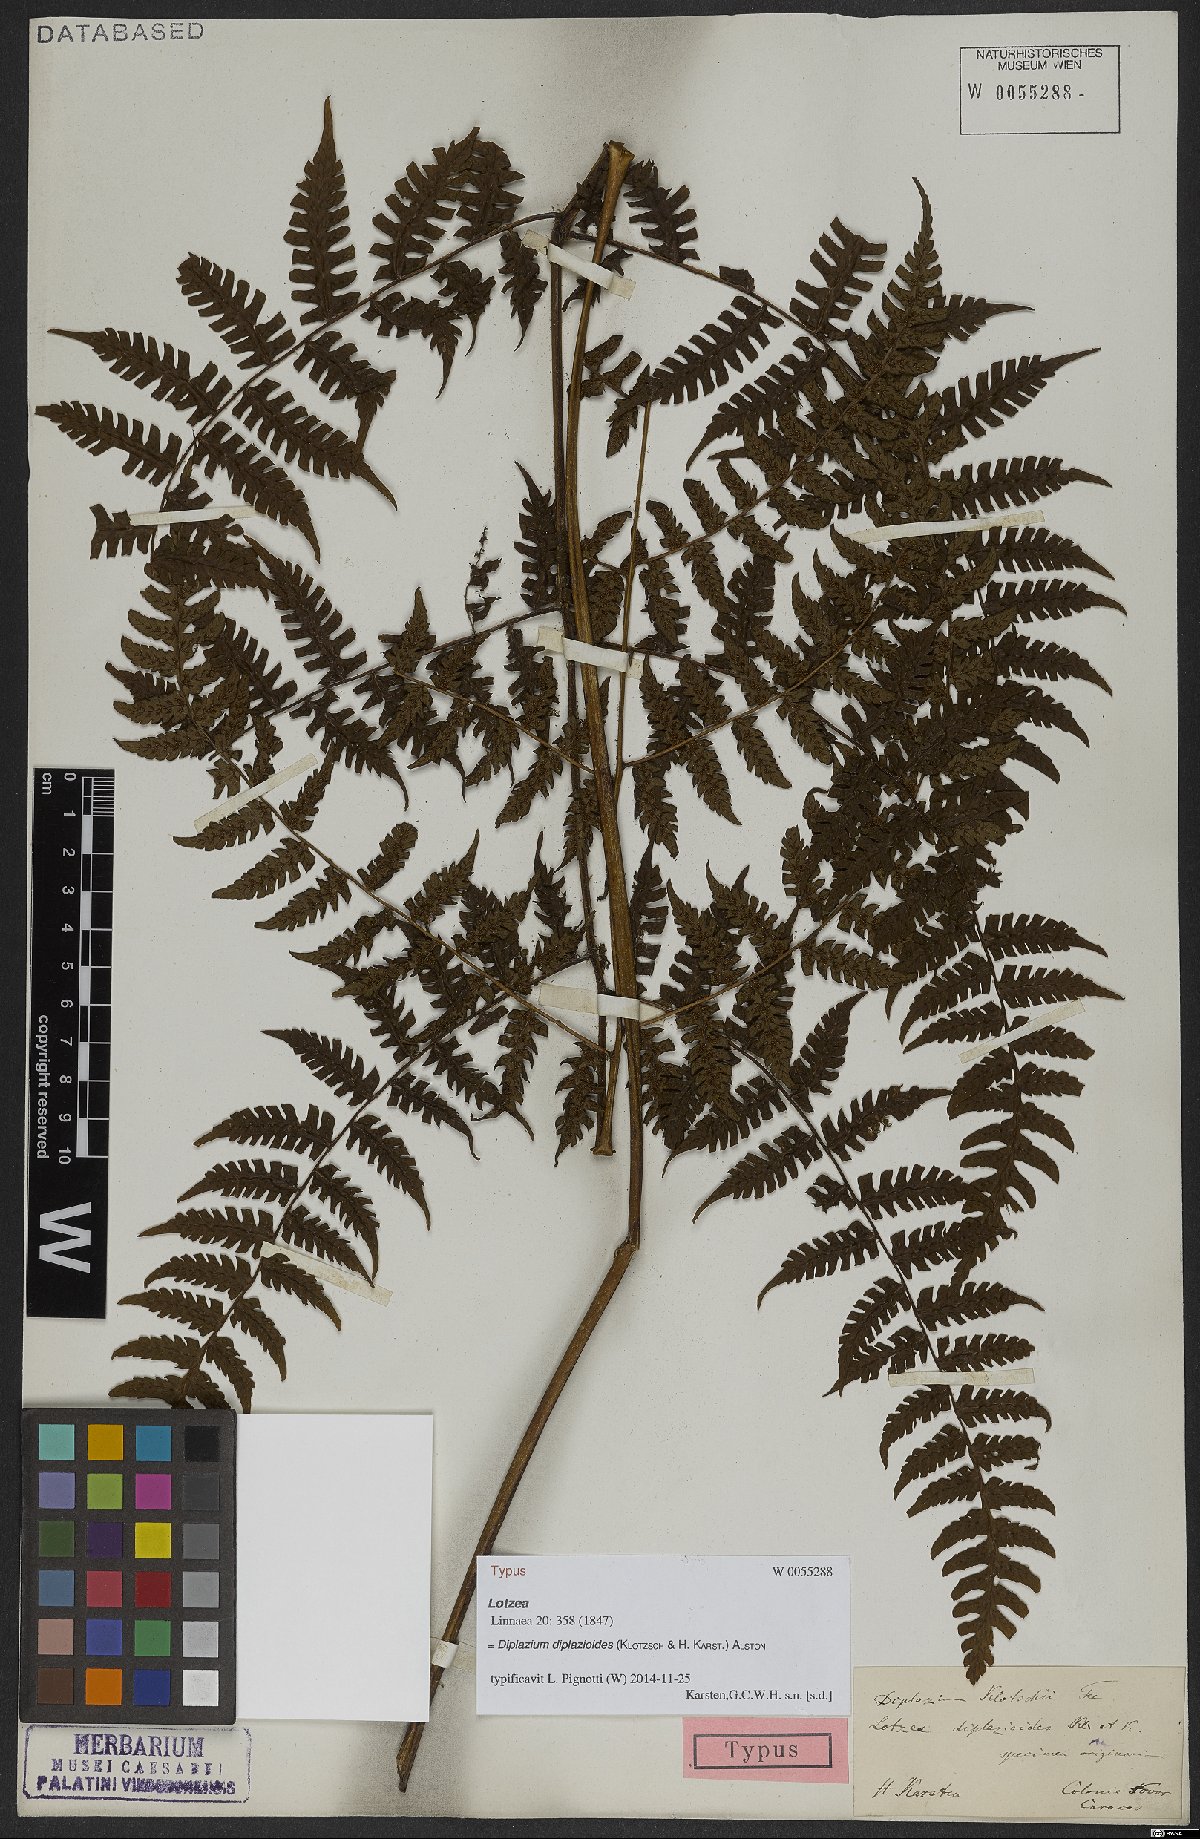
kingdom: Plantae
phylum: Tracheophyta
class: Polypodiopsida
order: Polypodiales
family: Athyriaceae
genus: Diplazium
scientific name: Diplazium diplazioides
